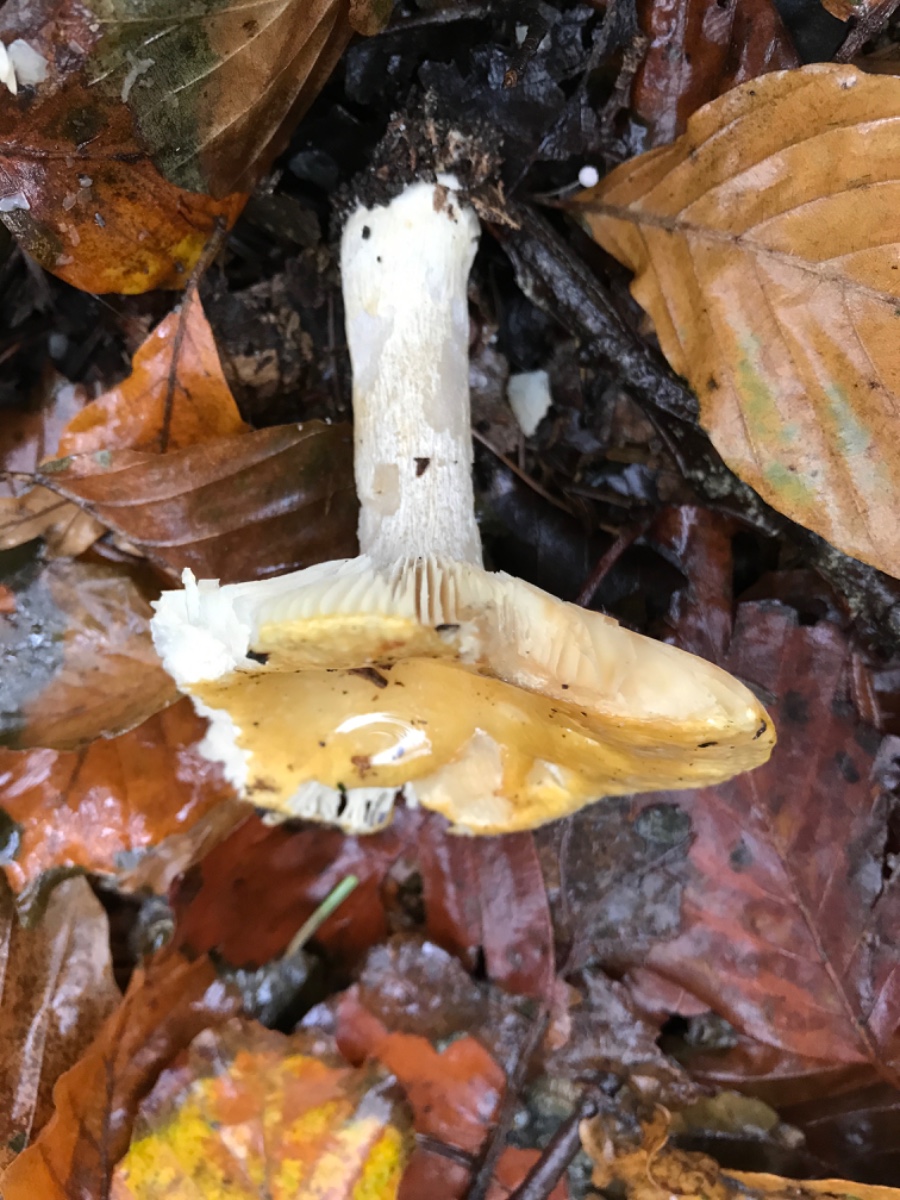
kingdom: Fungi
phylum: Basidiomycota
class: Agaricomycetes
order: Russulales
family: Russulaceae
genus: Russula
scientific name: Russula ochroleuca
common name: okkergul skørhat
